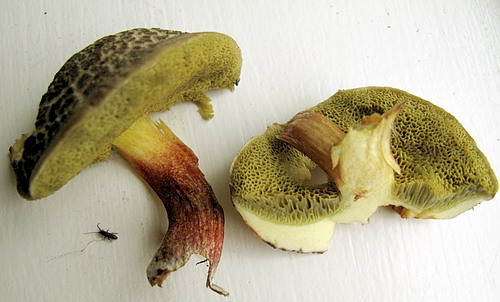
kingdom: Fungi
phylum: Basidiomycota
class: Agaricomycetes
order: Boletales
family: Boletaceae
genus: Xerocomellus
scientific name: Xerocomellus chrysenteron
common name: rødsprukken rørhat
